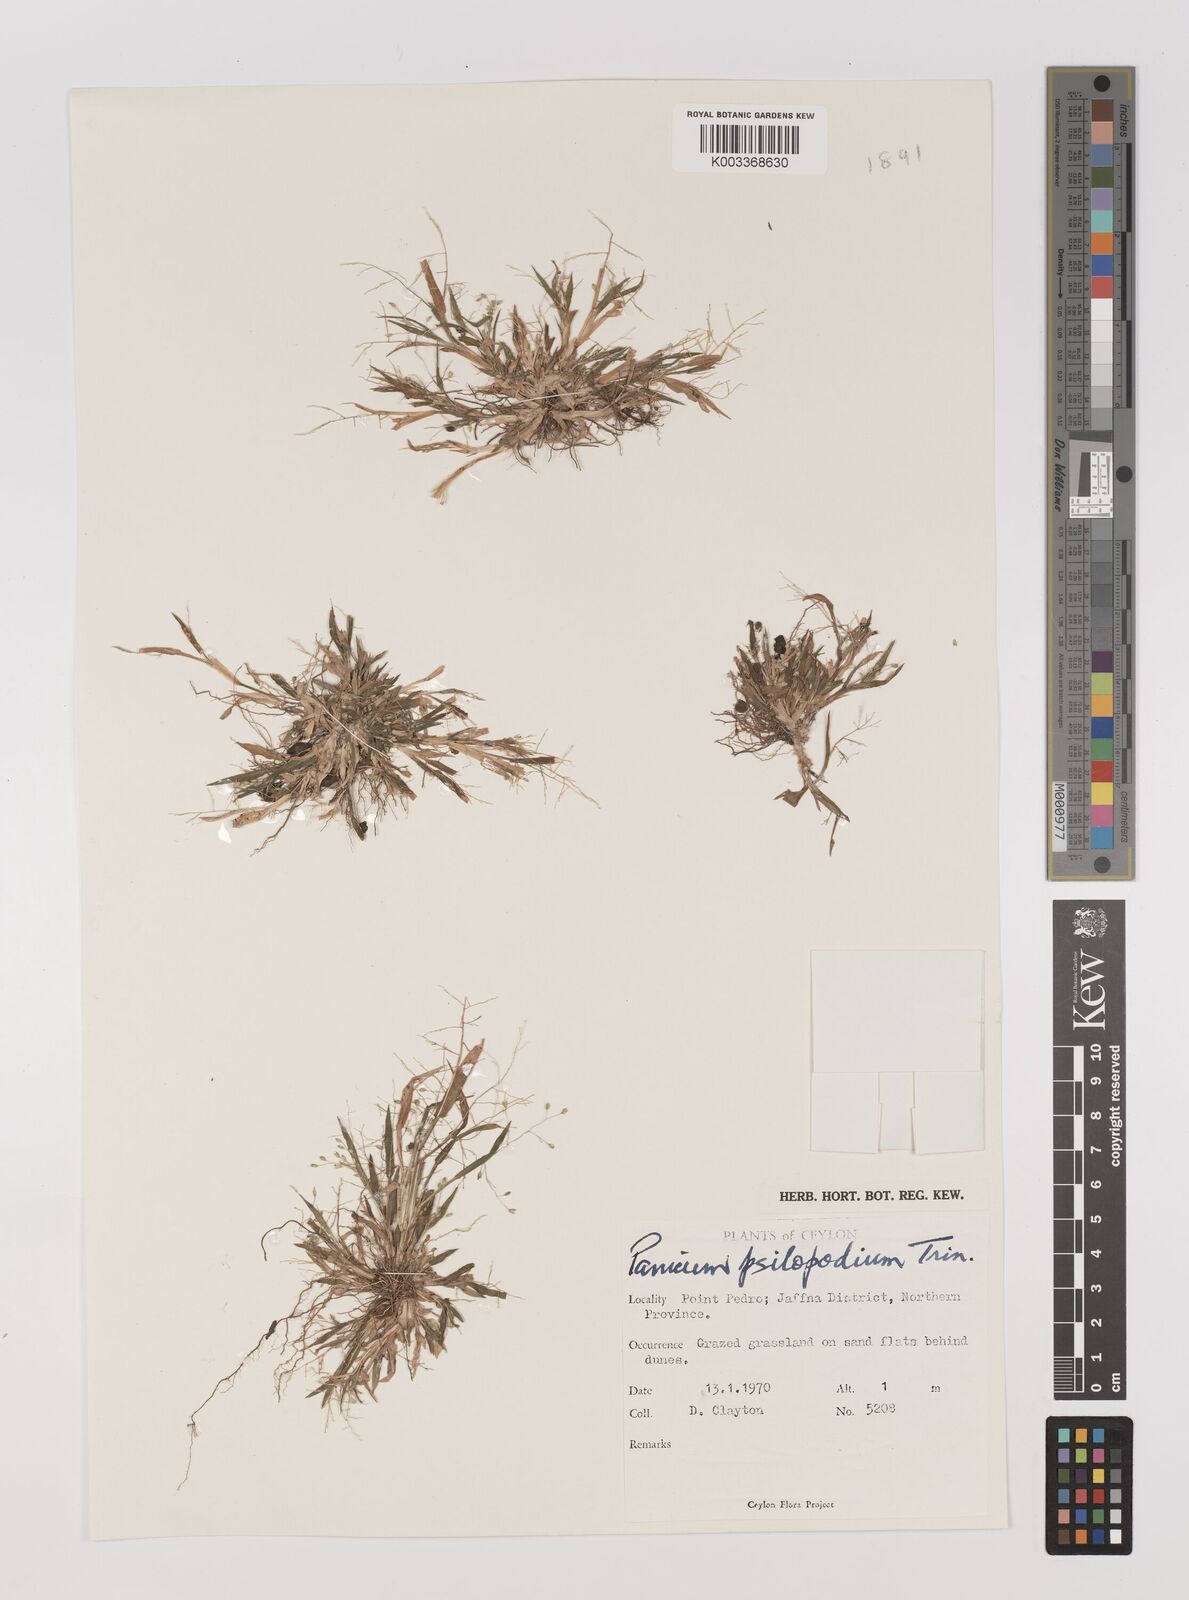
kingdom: Plantae
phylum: Tracheophyta
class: Liliopsida
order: Poales
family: Poaceae
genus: Panicum
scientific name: Panicum sumatrense
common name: Little millet
